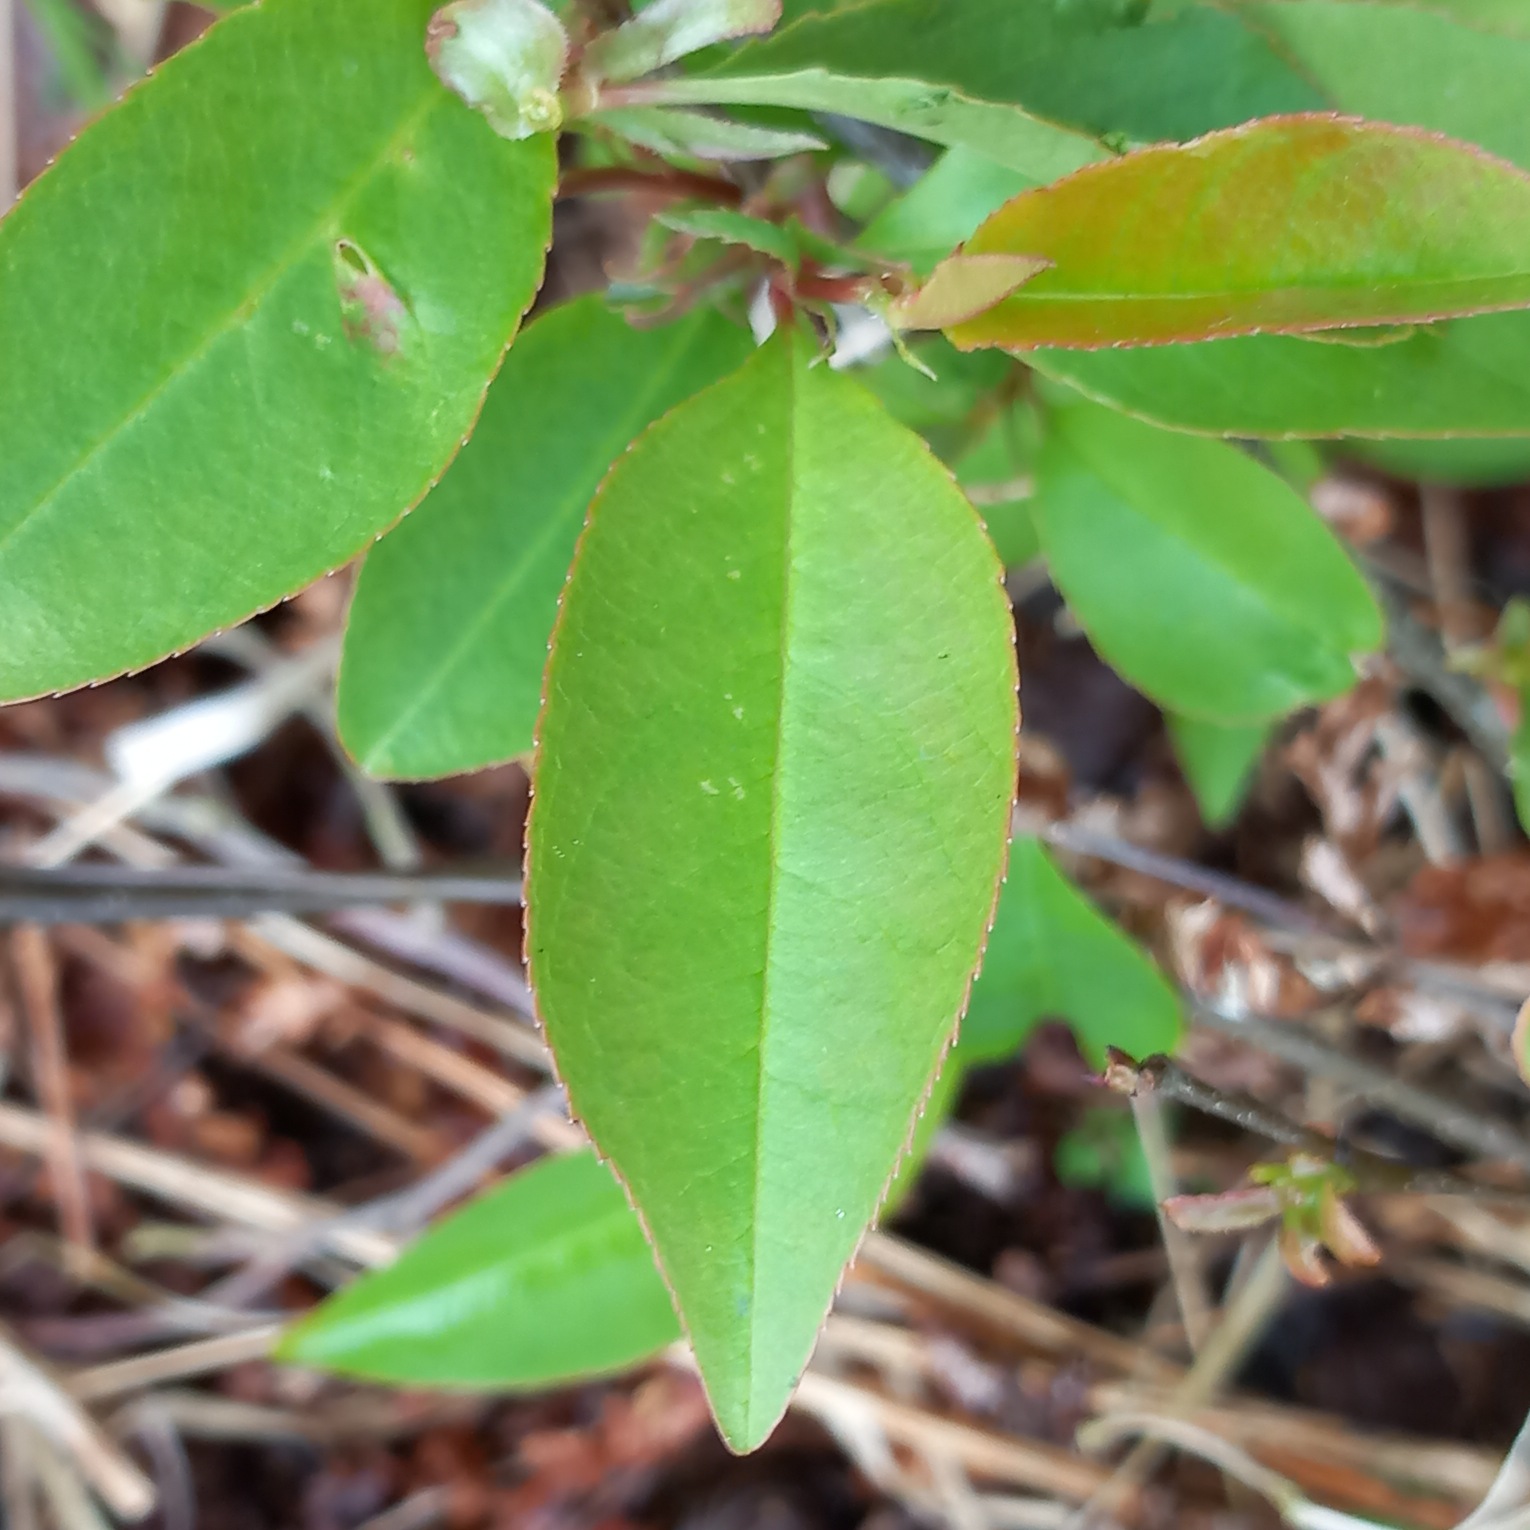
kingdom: Plantae
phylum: Tracheophyta
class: Magnoliopsida
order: Rosales
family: Rosaceae
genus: Prunus
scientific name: Prunus serotina
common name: Glansbladet hæg
